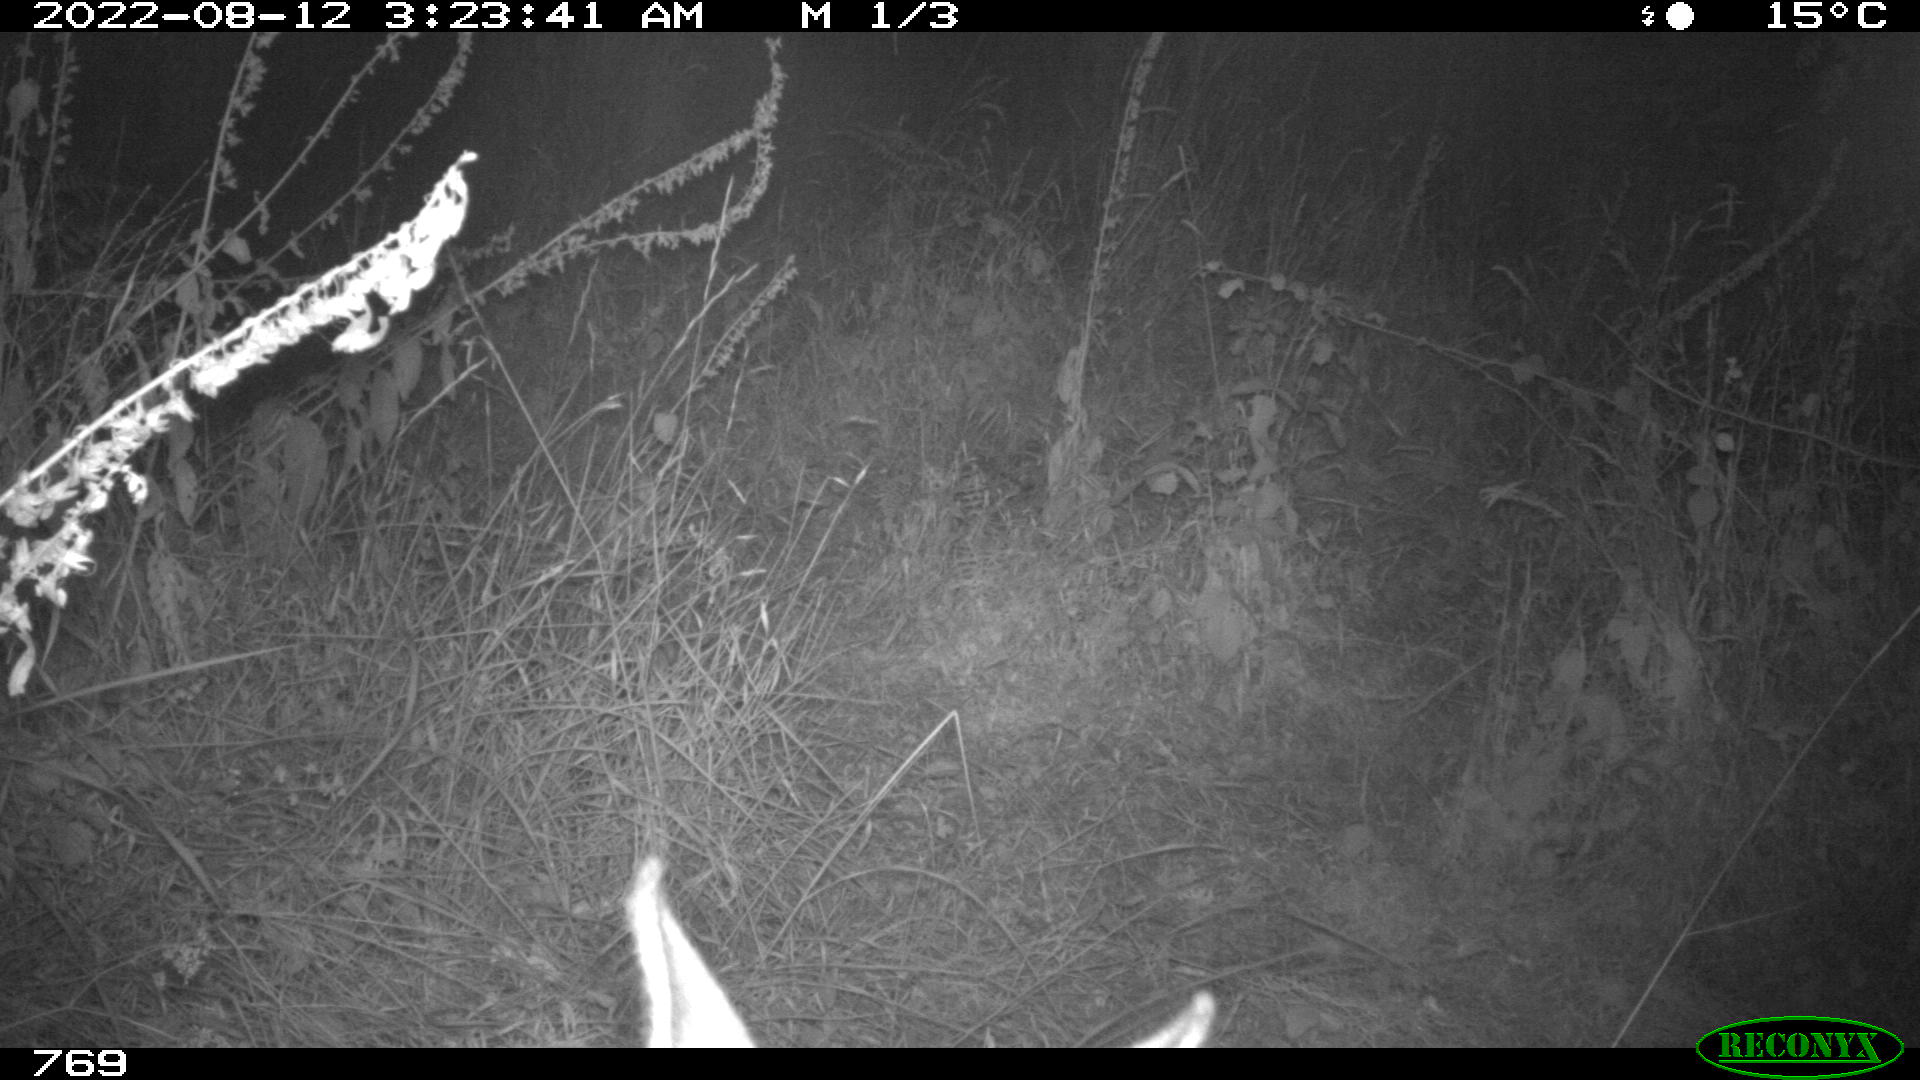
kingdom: Animalia
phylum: Chordata
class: Mammalia
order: Artiodactyla
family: Cervidae
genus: Capreolus
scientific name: Capreolus capreolus
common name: Western roe deer
